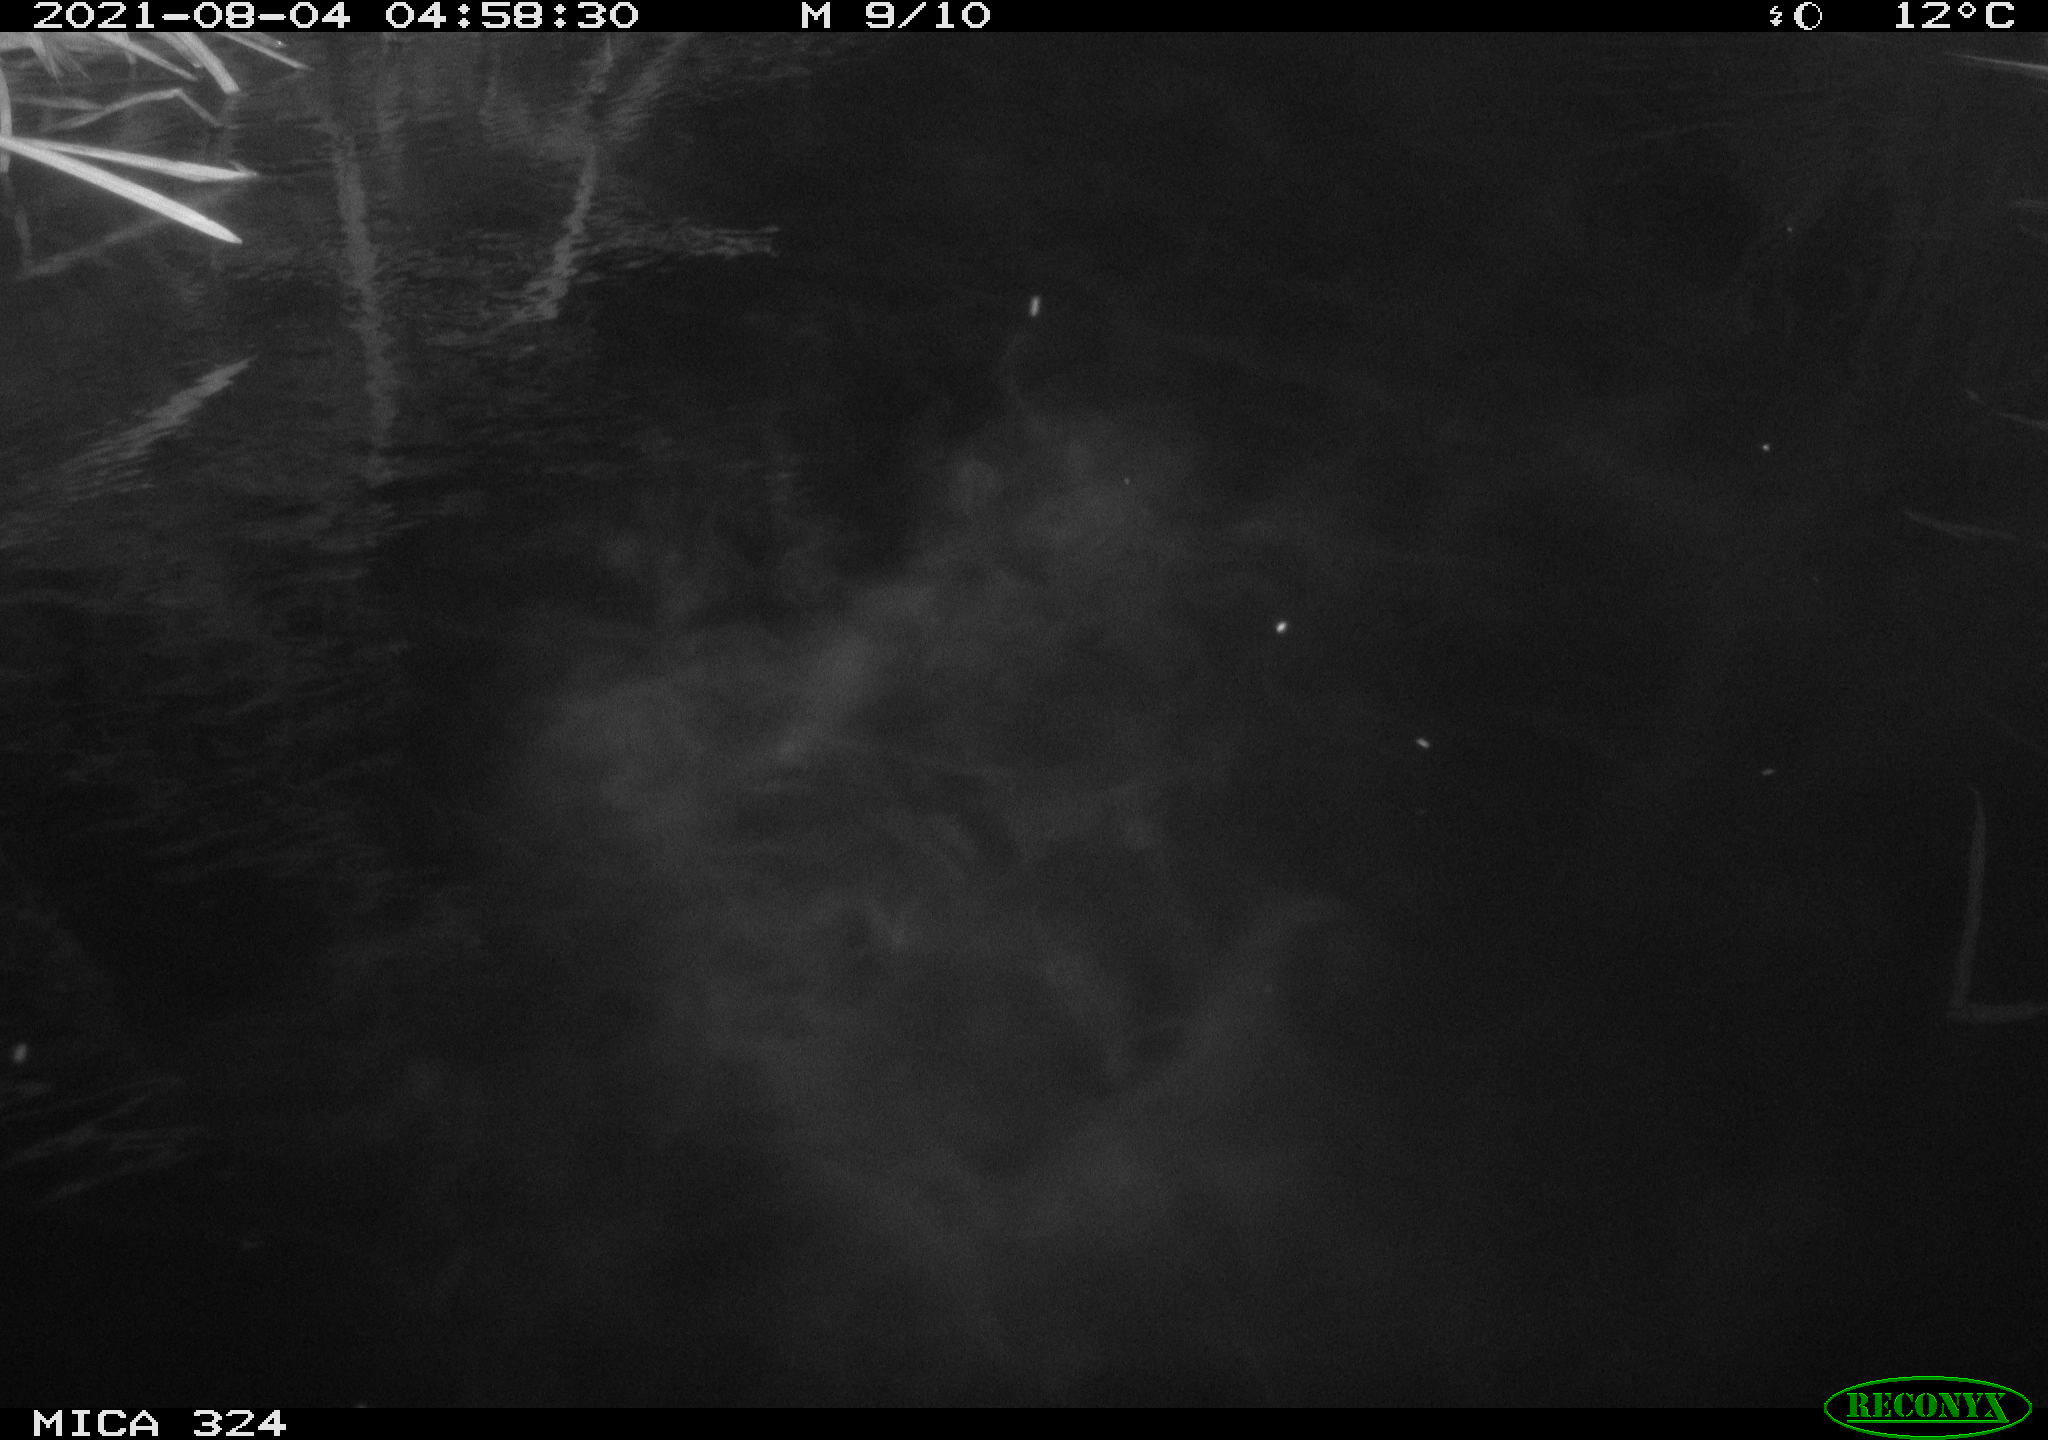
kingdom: Animalia
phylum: Chordata
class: Mammalia
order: Rodentia
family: Cricetidae
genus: Ondatra
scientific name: Ondatra zibethicus
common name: Muskrat
